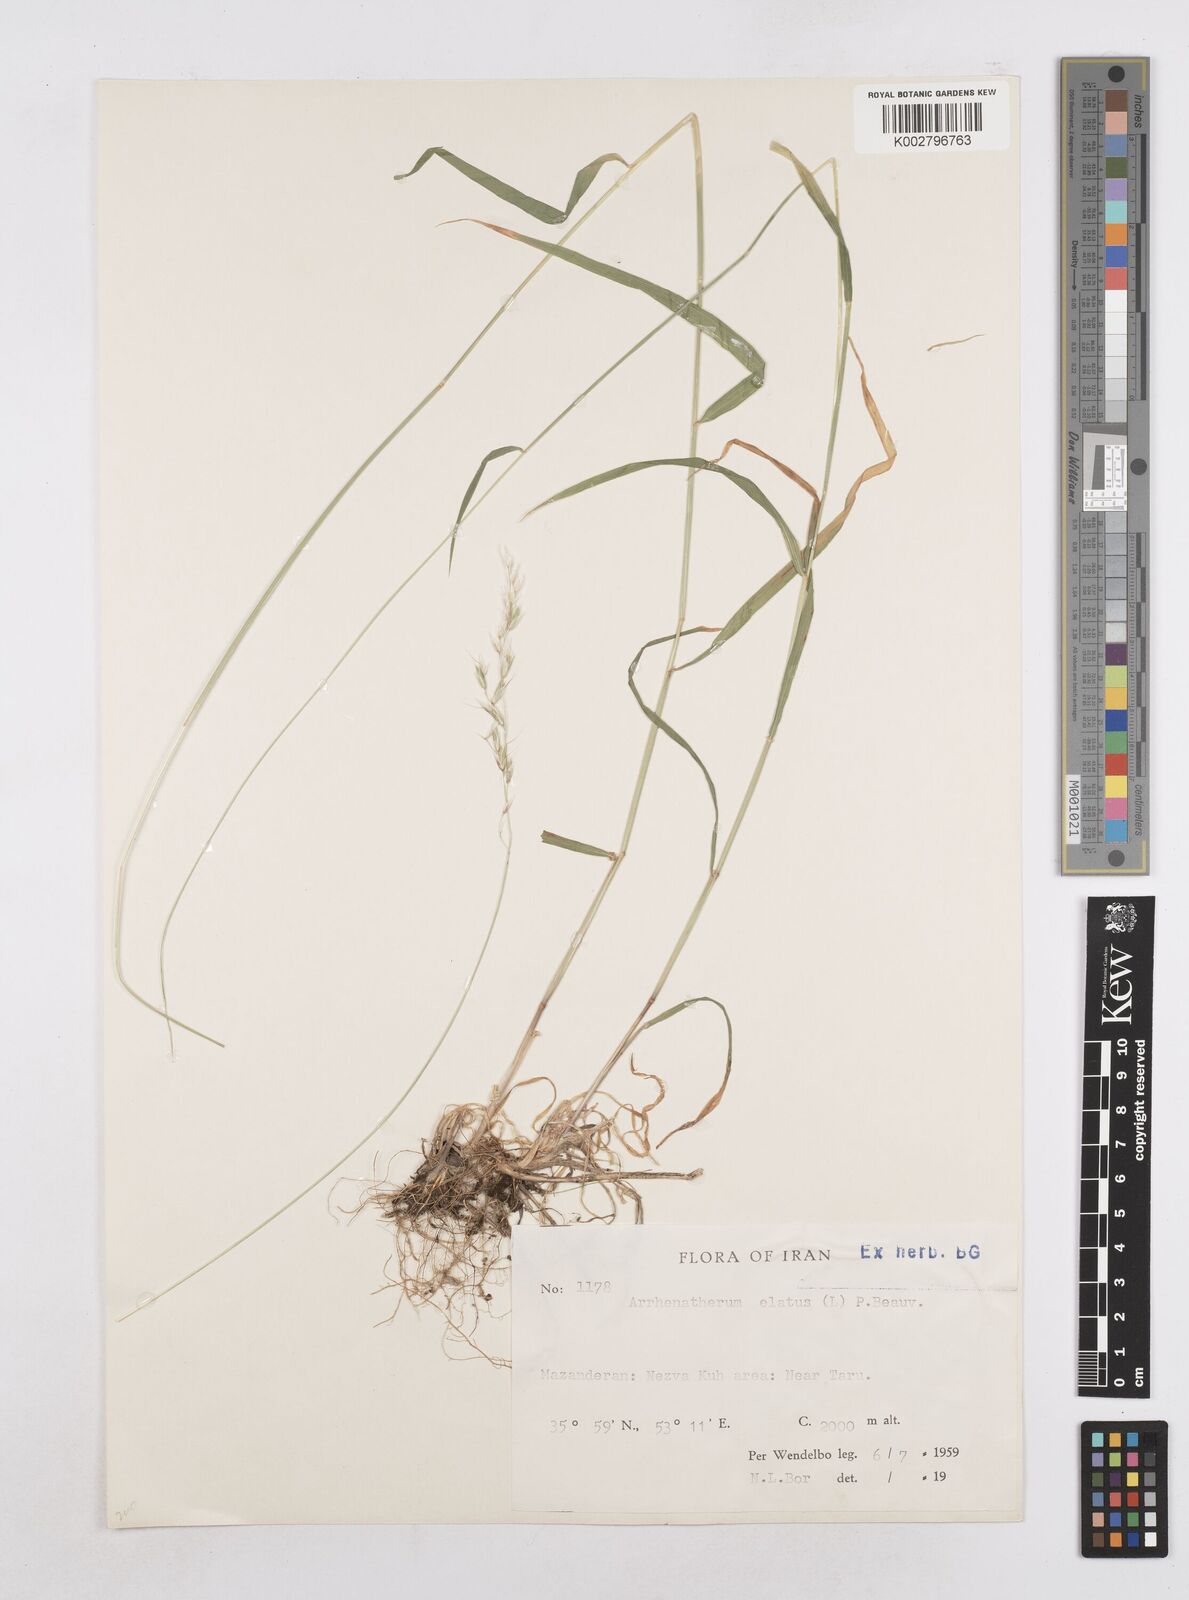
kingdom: Plantae
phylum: Tracheophyta
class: Liliopsida
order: Poales
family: Poaceae
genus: Arrhenatherum
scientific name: Arrhenatherum elatius
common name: Tall oatgrass
